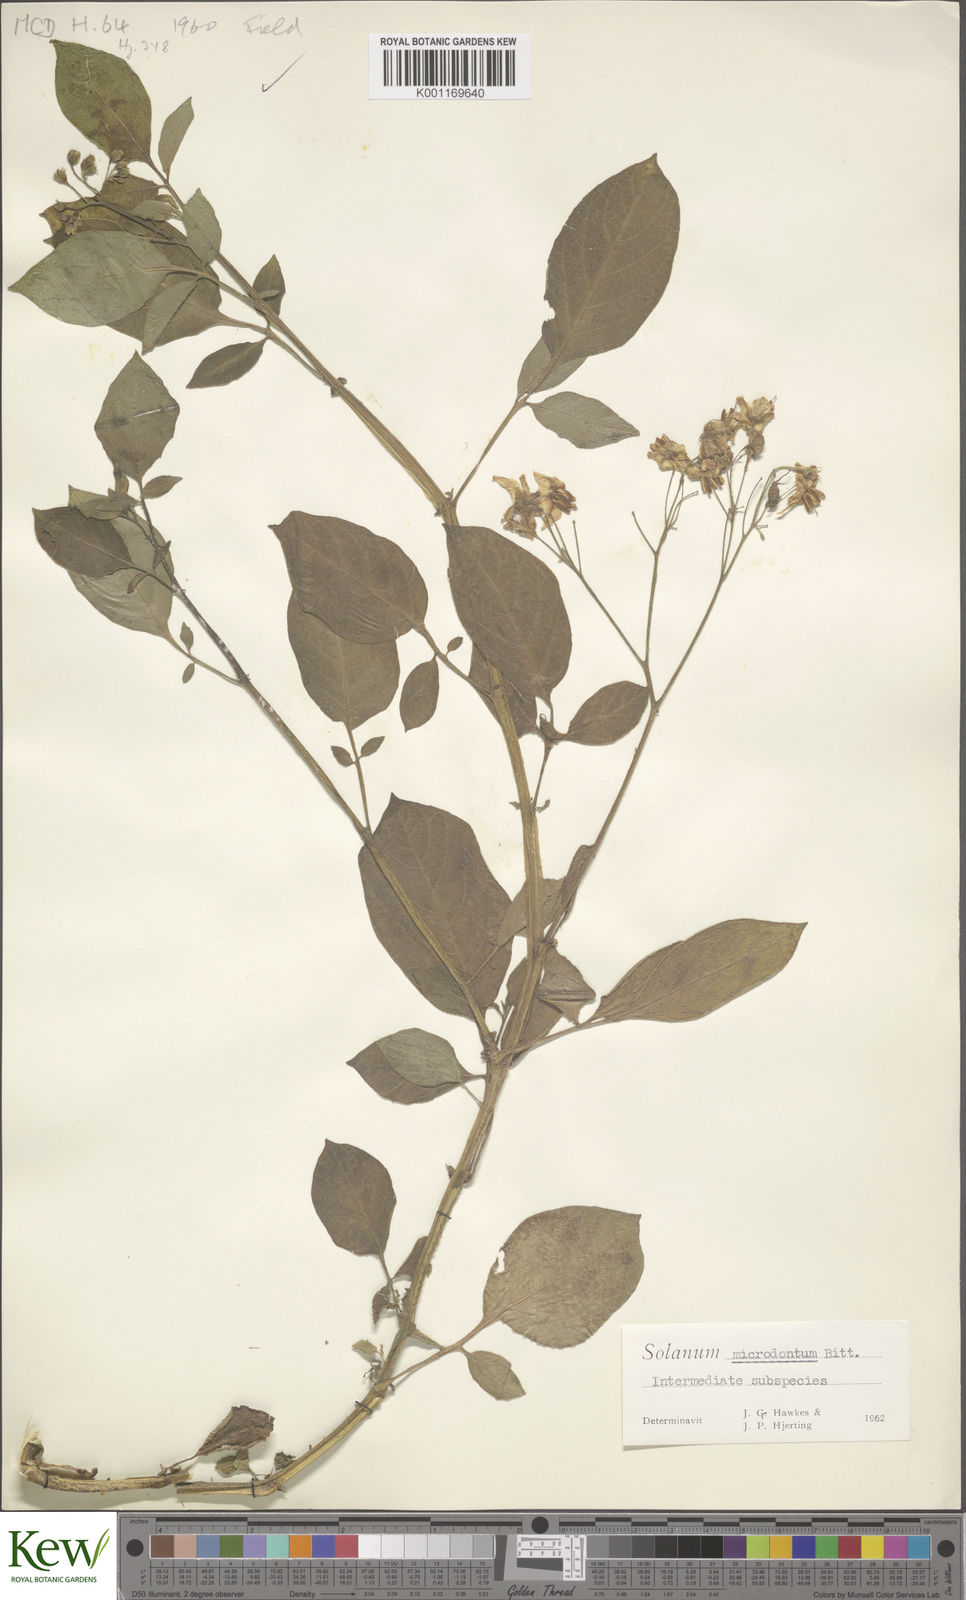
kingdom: Plantae
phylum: Tracheophyta
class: Magnoliopsida
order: Solanales
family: Solanaceae
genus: Solanum
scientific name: Solanum microdontum
